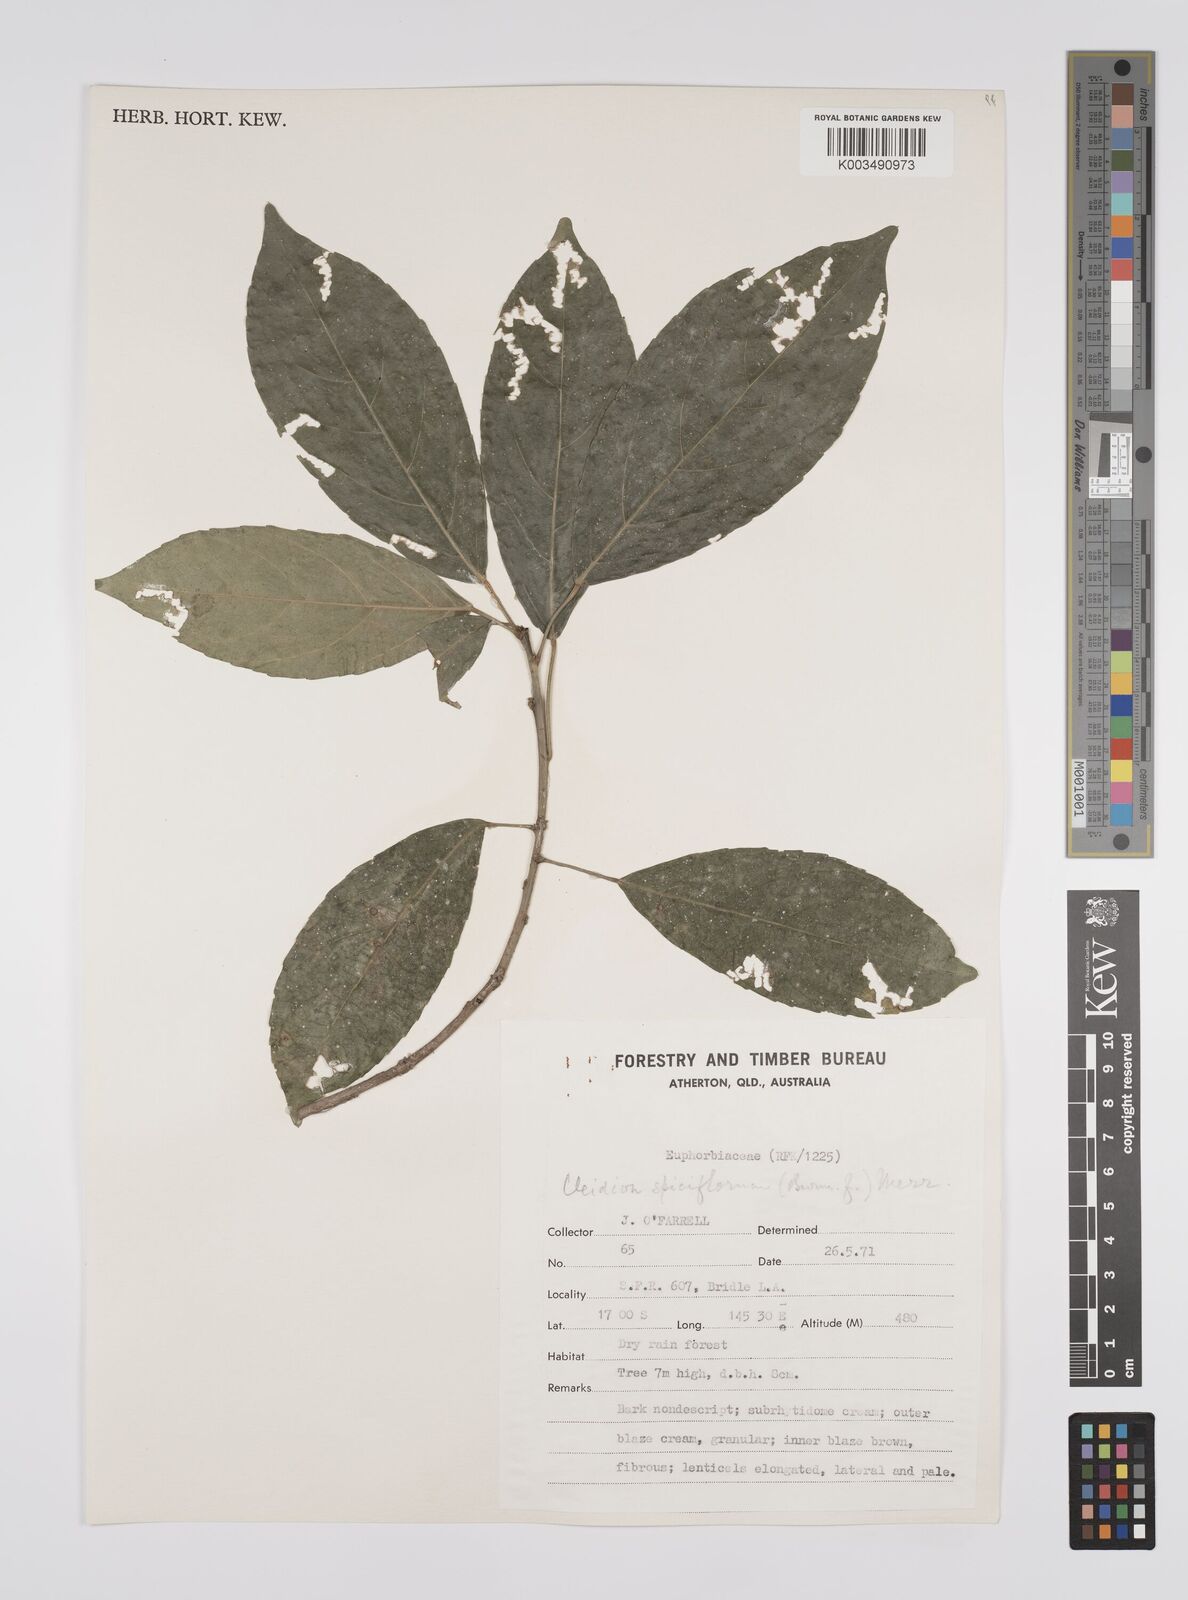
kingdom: Plantae
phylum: Tracheophyta
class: Magnoliopsida
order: Malpighiales
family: Euphorbiaceae
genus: Cleidion
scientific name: Cleidion javanicum
